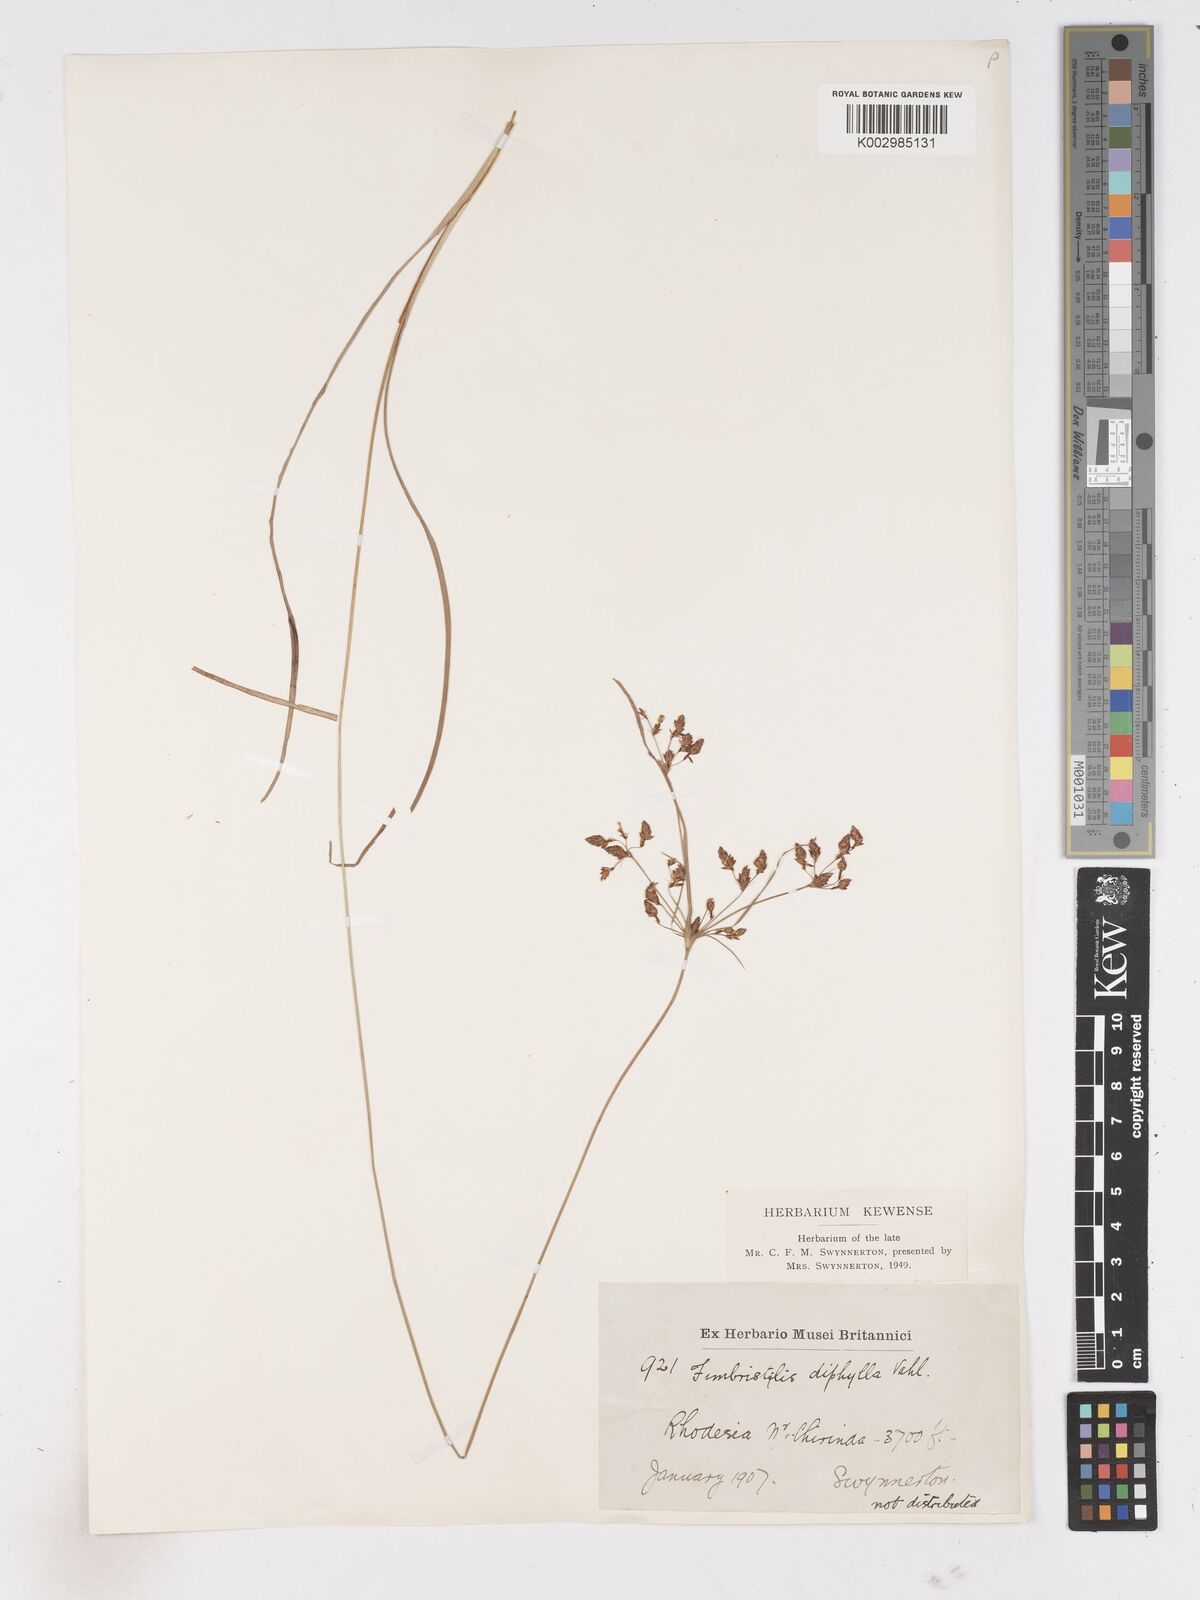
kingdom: Plantae
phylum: Tracheophyta
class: Liliopsida
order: Poales
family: Cyperaceae
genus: Fimbristylis
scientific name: Fimbristylis dichotoma
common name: Forked fimbry
